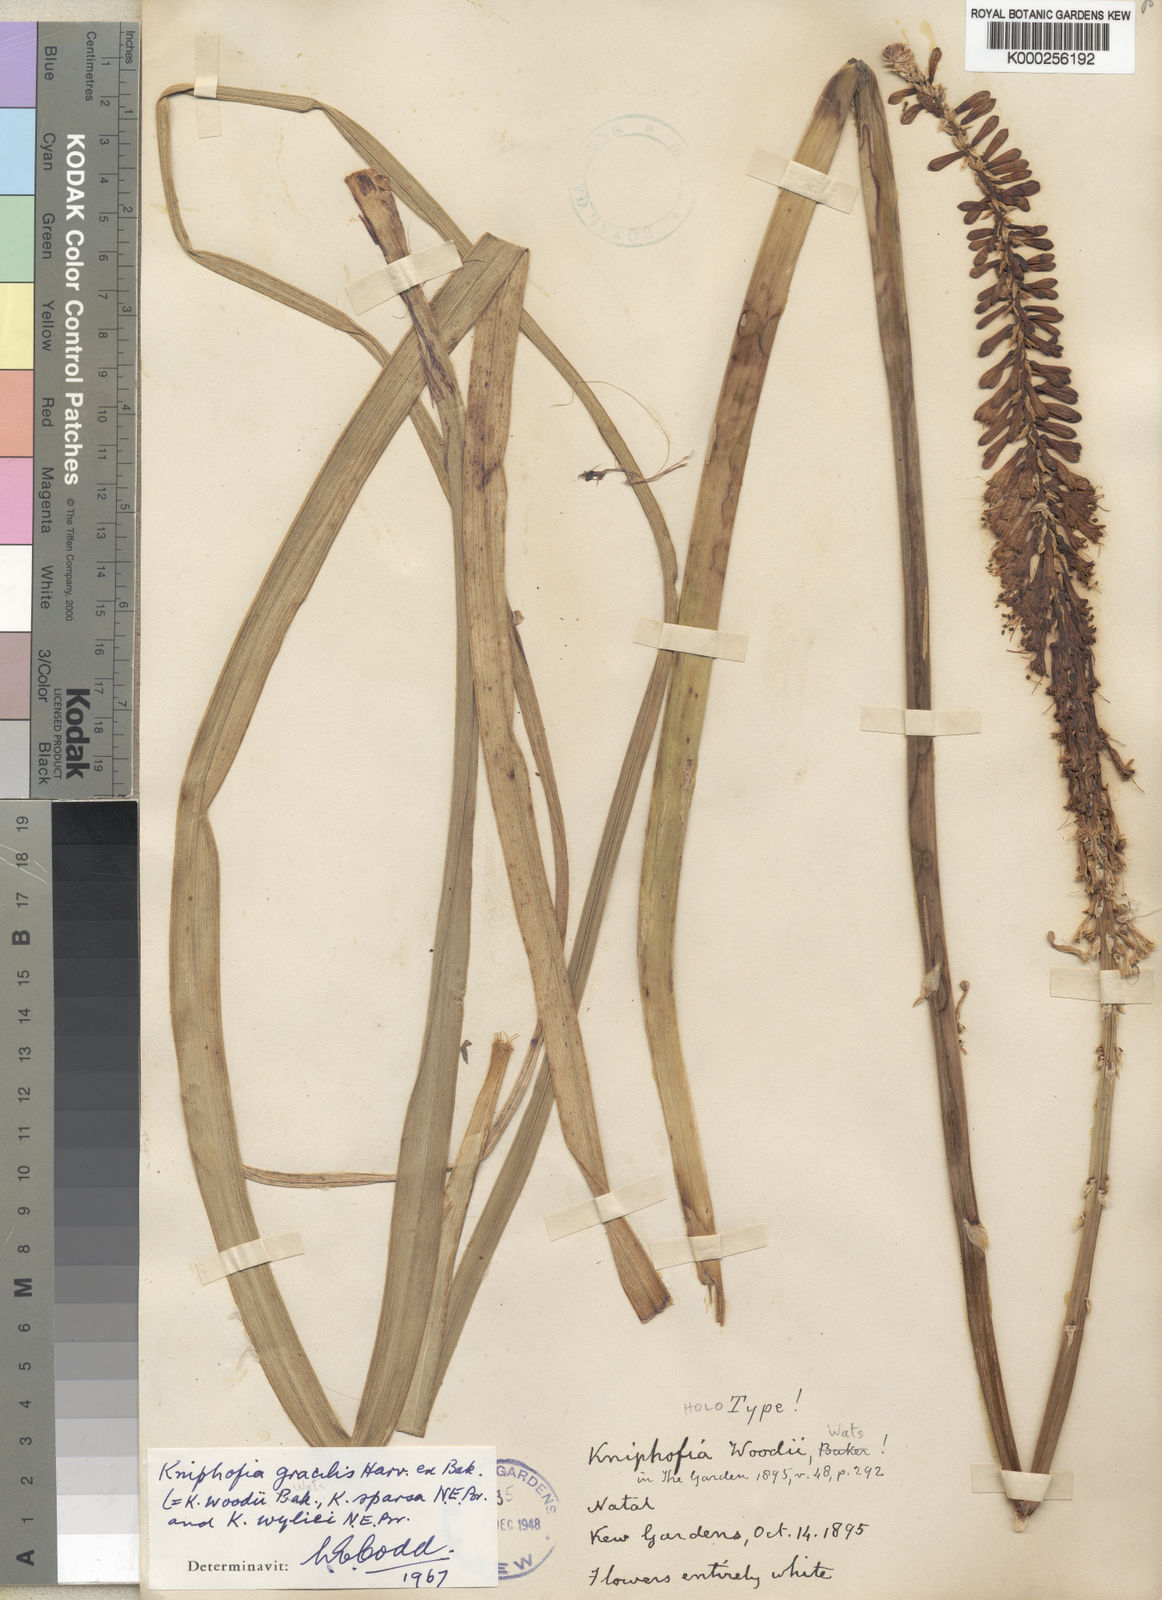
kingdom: Plantae
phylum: Tracheophyta
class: Liliopsida
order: Asparagales
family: Asphodelaceae
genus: Kniphofia
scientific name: Kniphofia gracilis
